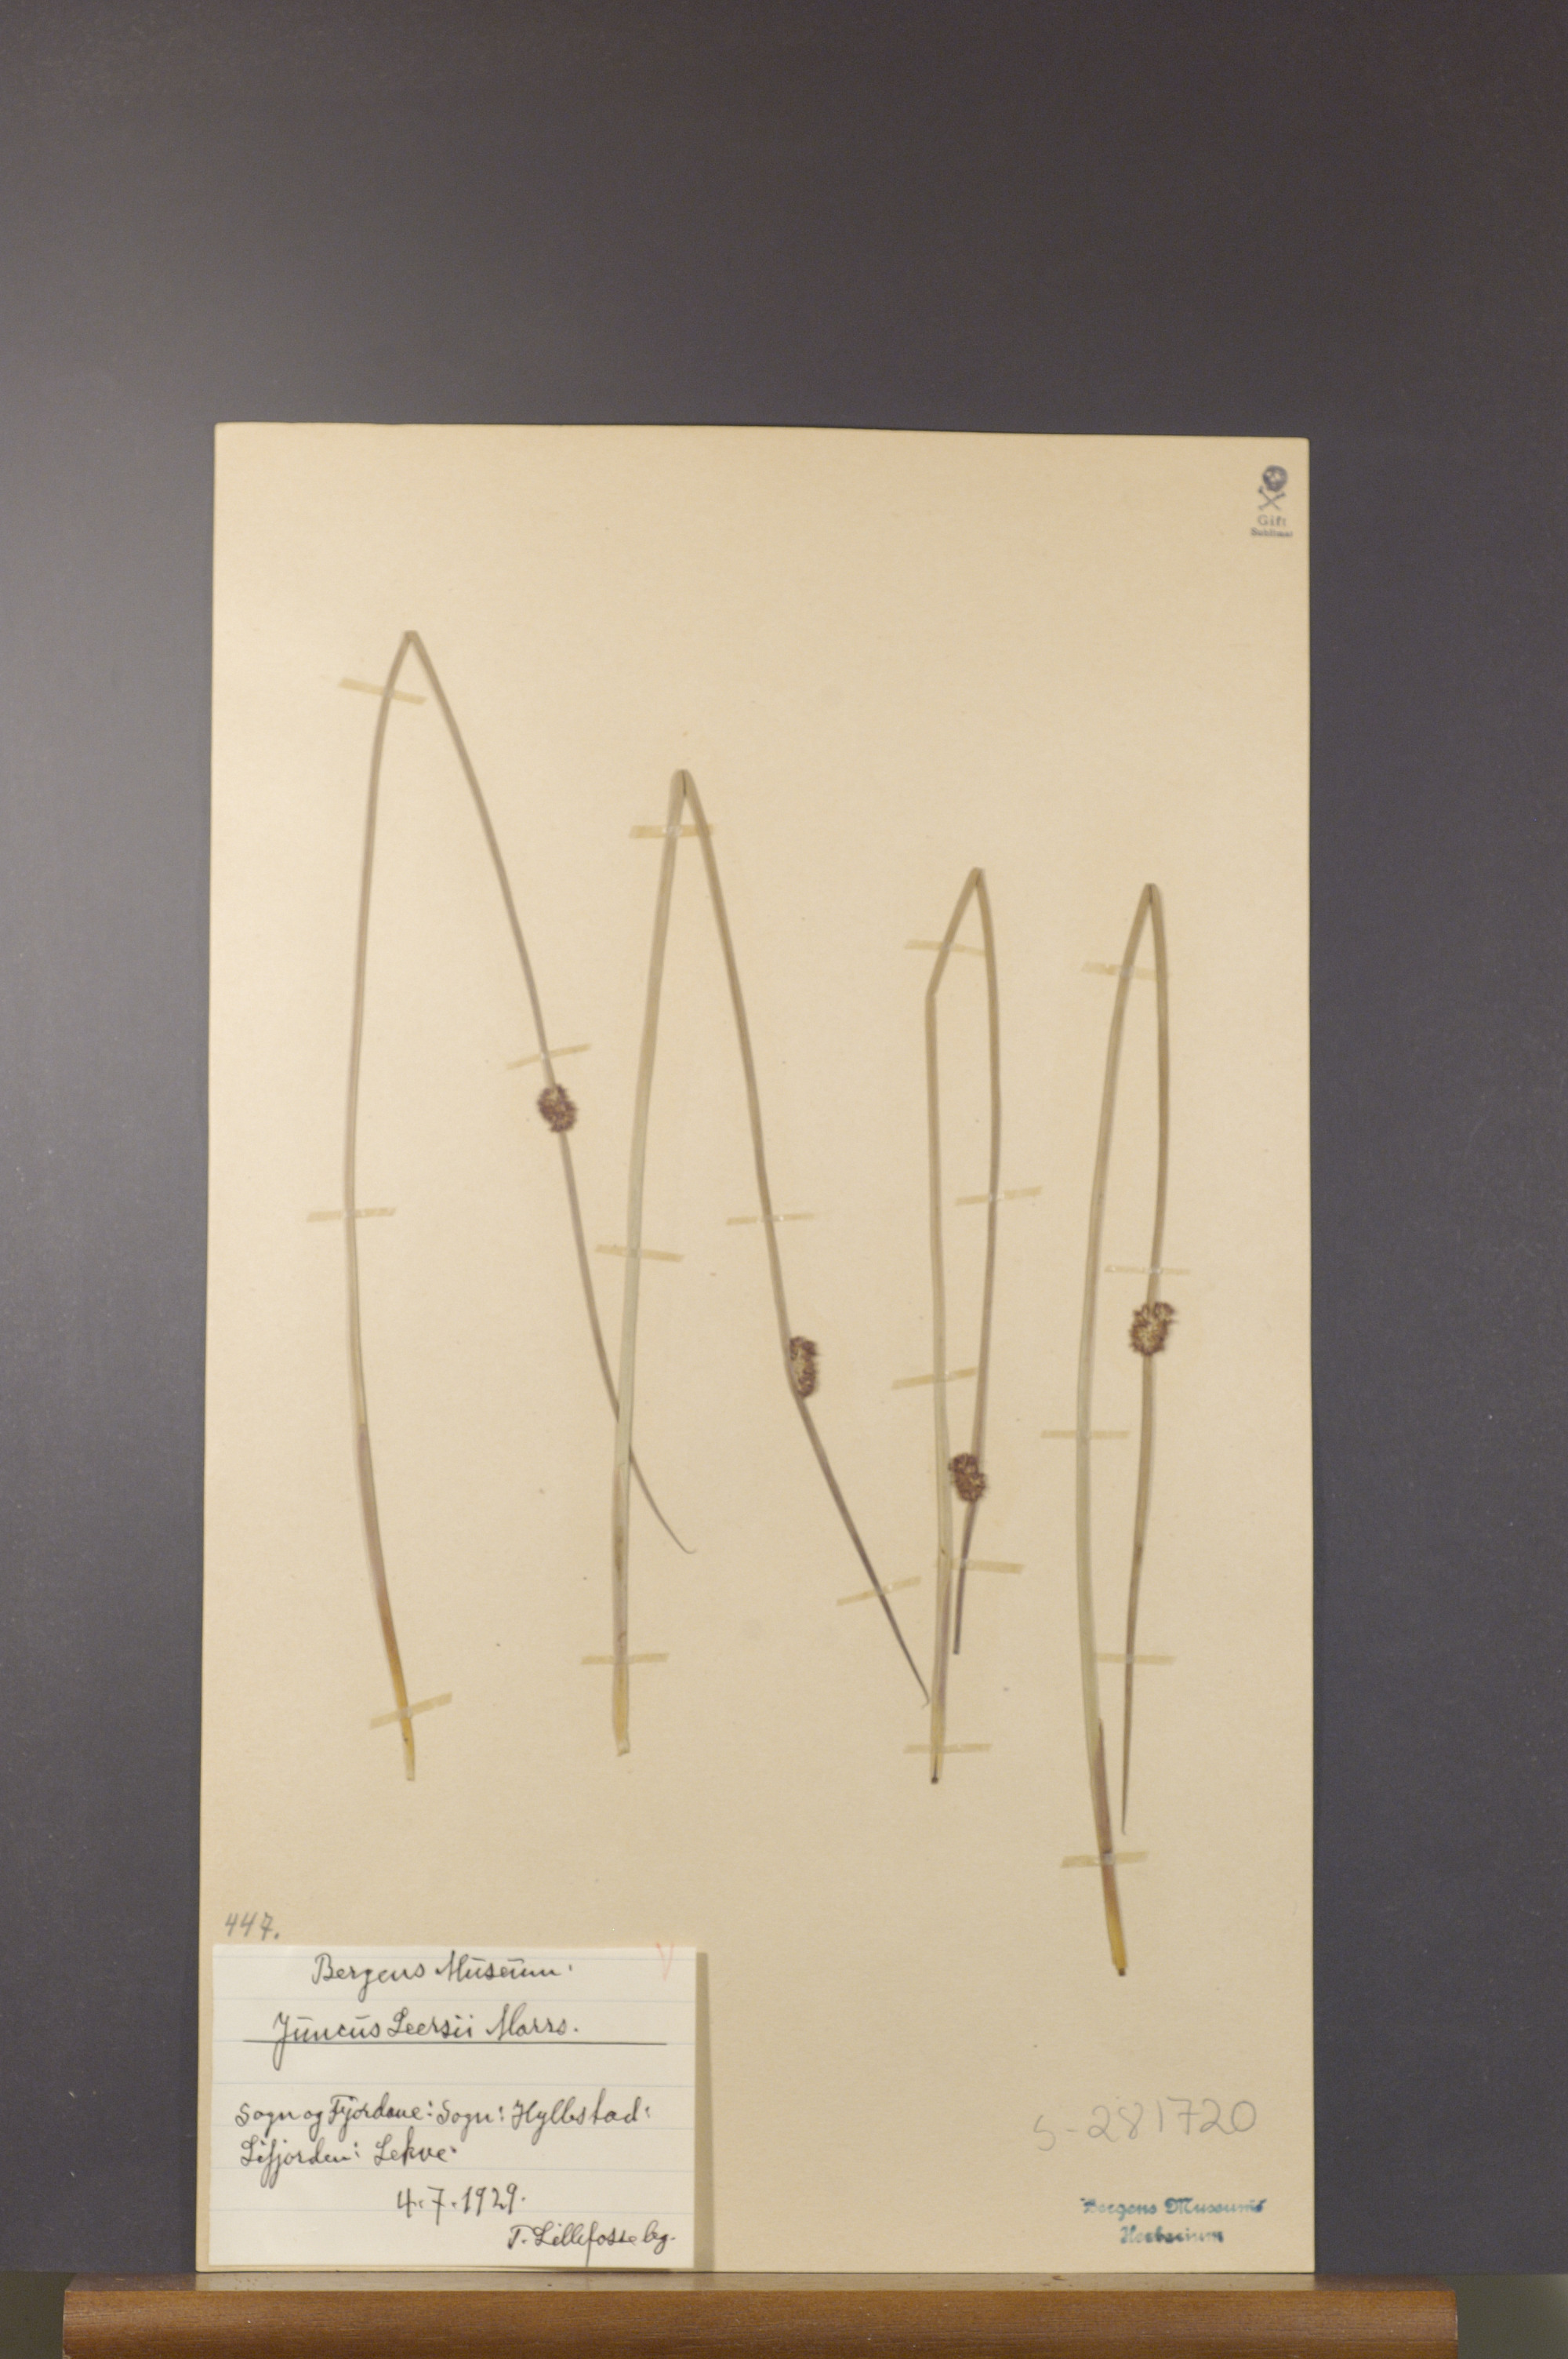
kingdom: Plantae
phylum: Tracheophyta
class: Liliopsida
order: Poales
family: Juncaceae
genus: Juncus
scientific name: Juncus conglomeratus
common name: Compact rush
